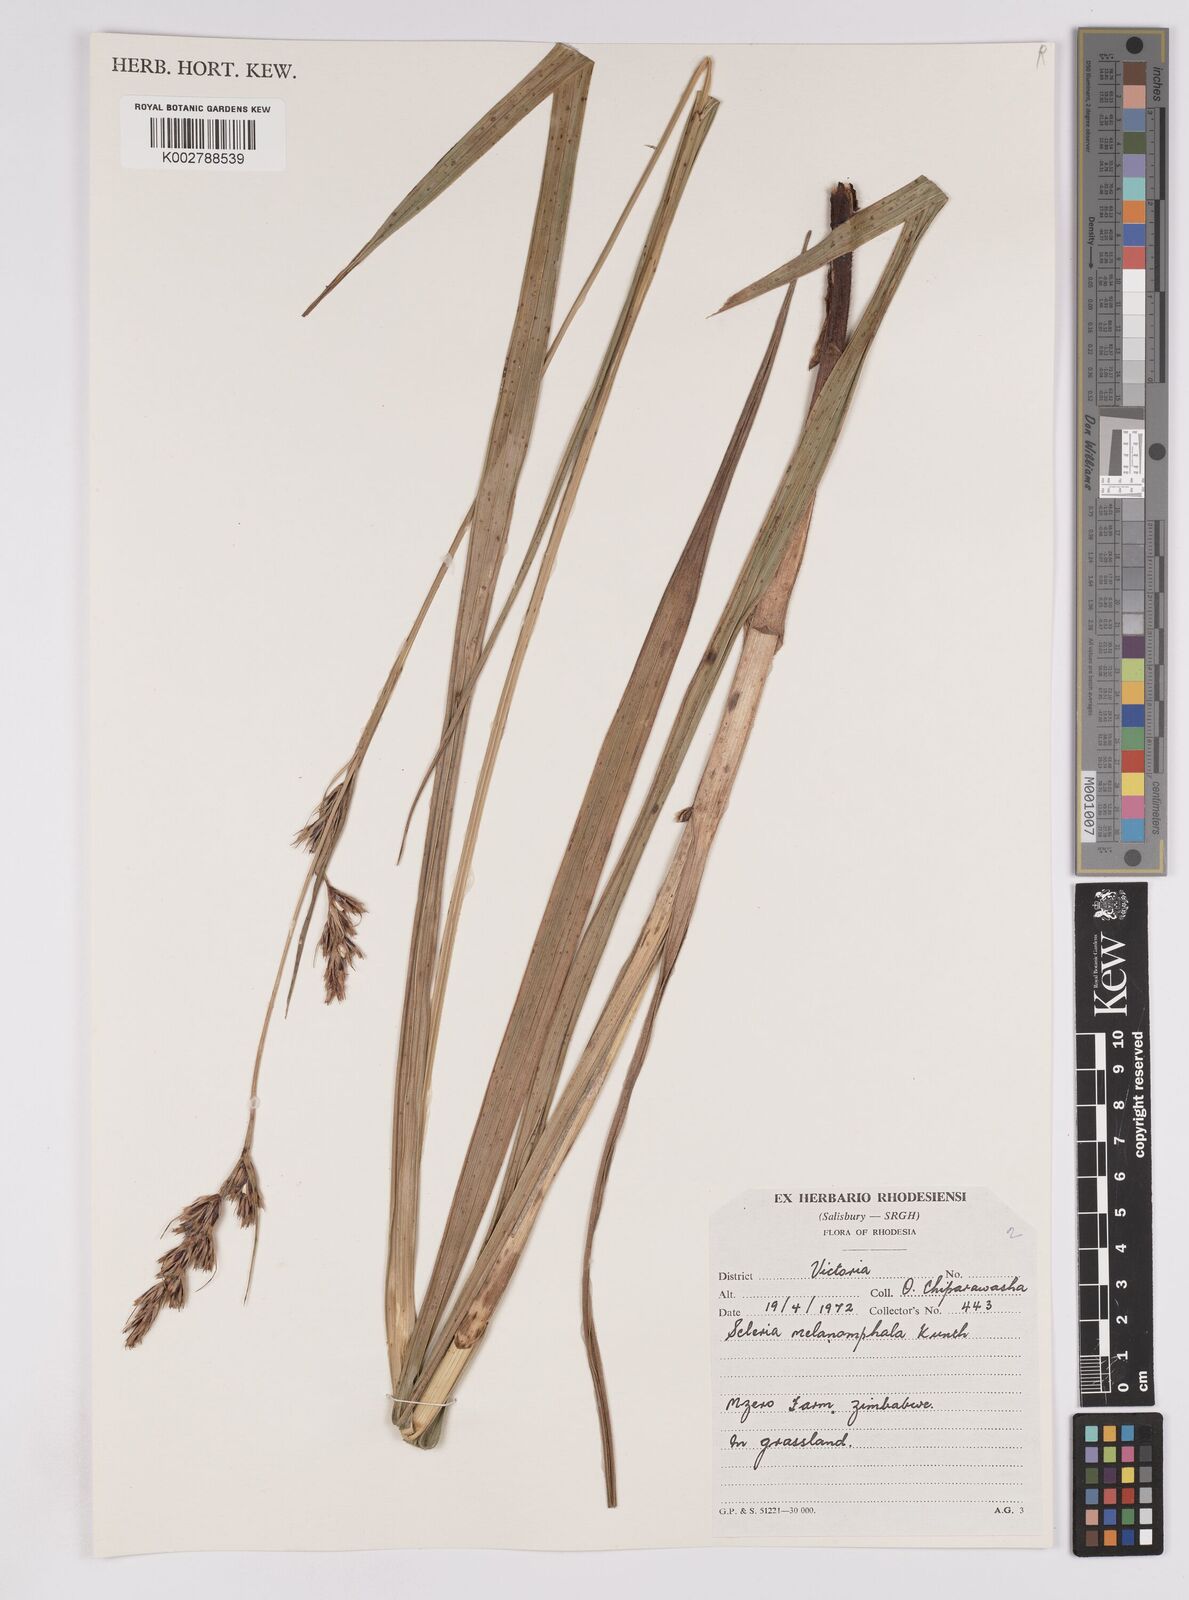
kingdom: Plantae
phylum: Tracheophyta
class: Liliopsida
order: Poales
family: Cyperaceae
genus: Scleria
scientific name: Scleria melanomphala
